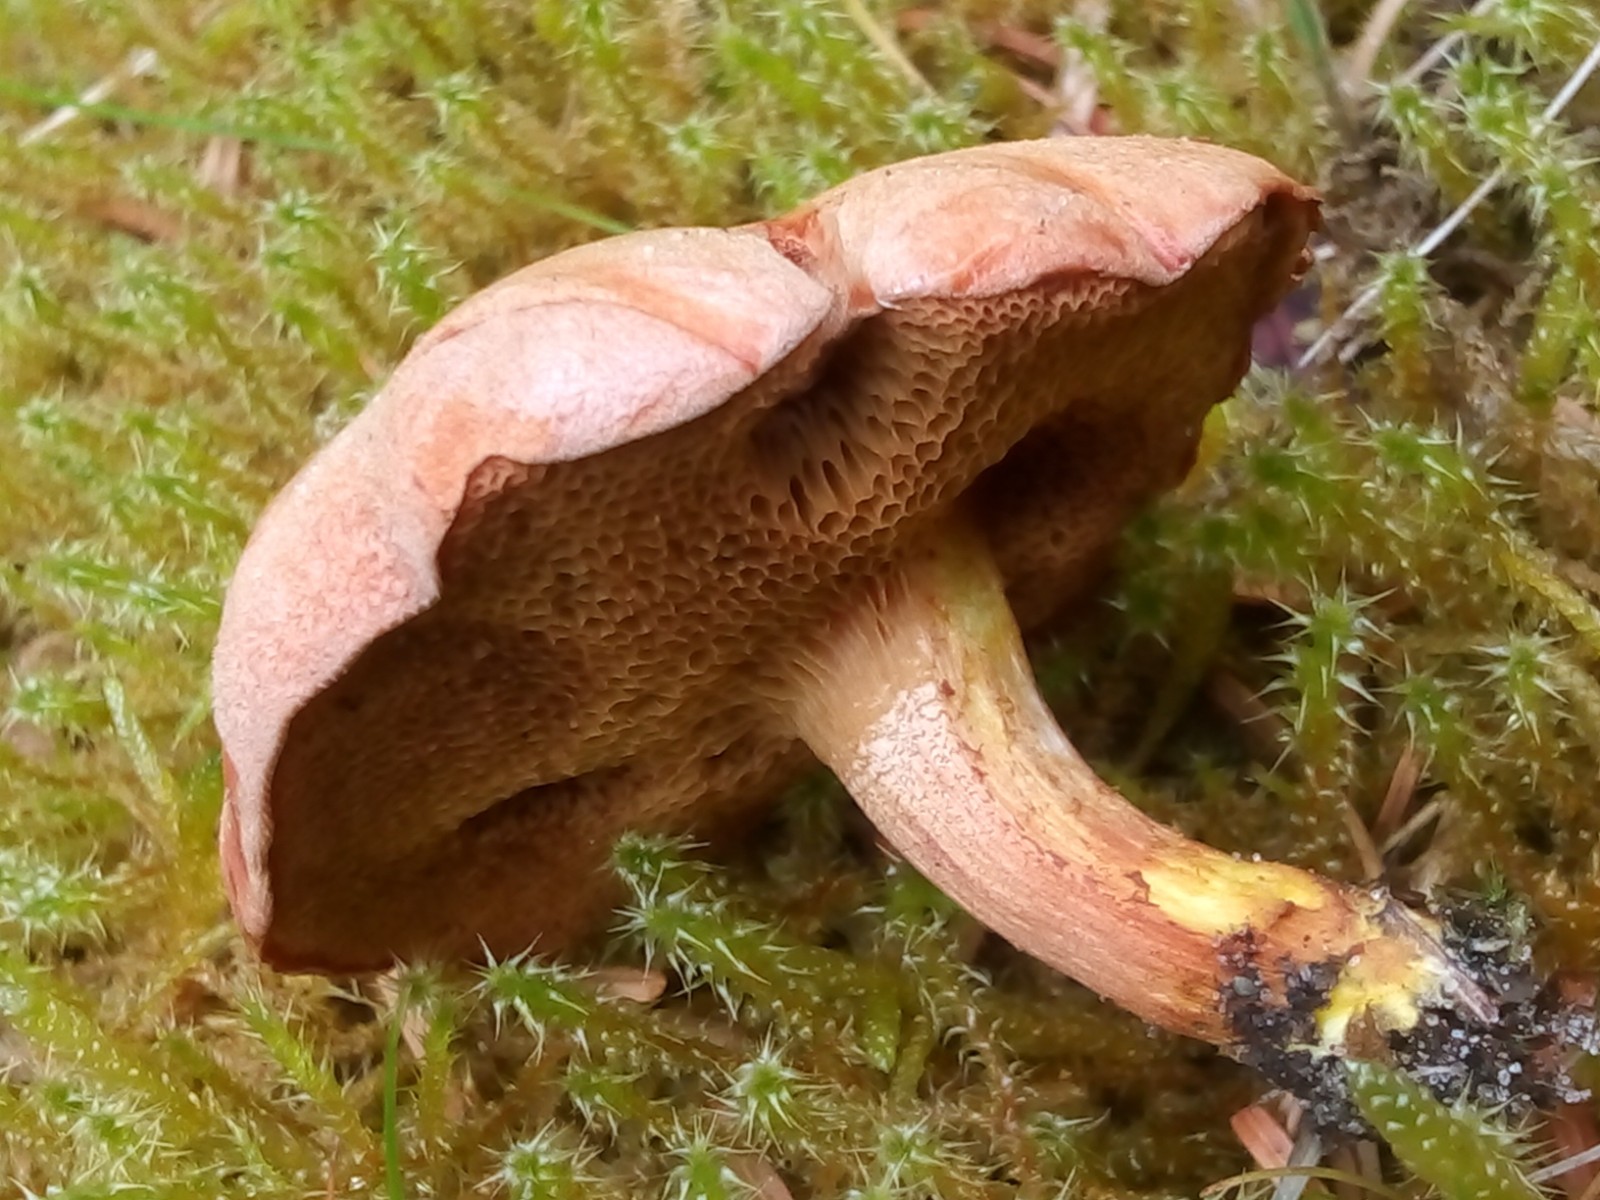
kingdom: Fungi
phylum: Basidiomycota
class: Agaricomycetes
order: Boletales
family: Boletaceae
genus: Chalciporus
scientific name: Chalciporus piperatus
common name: peberrørhat
